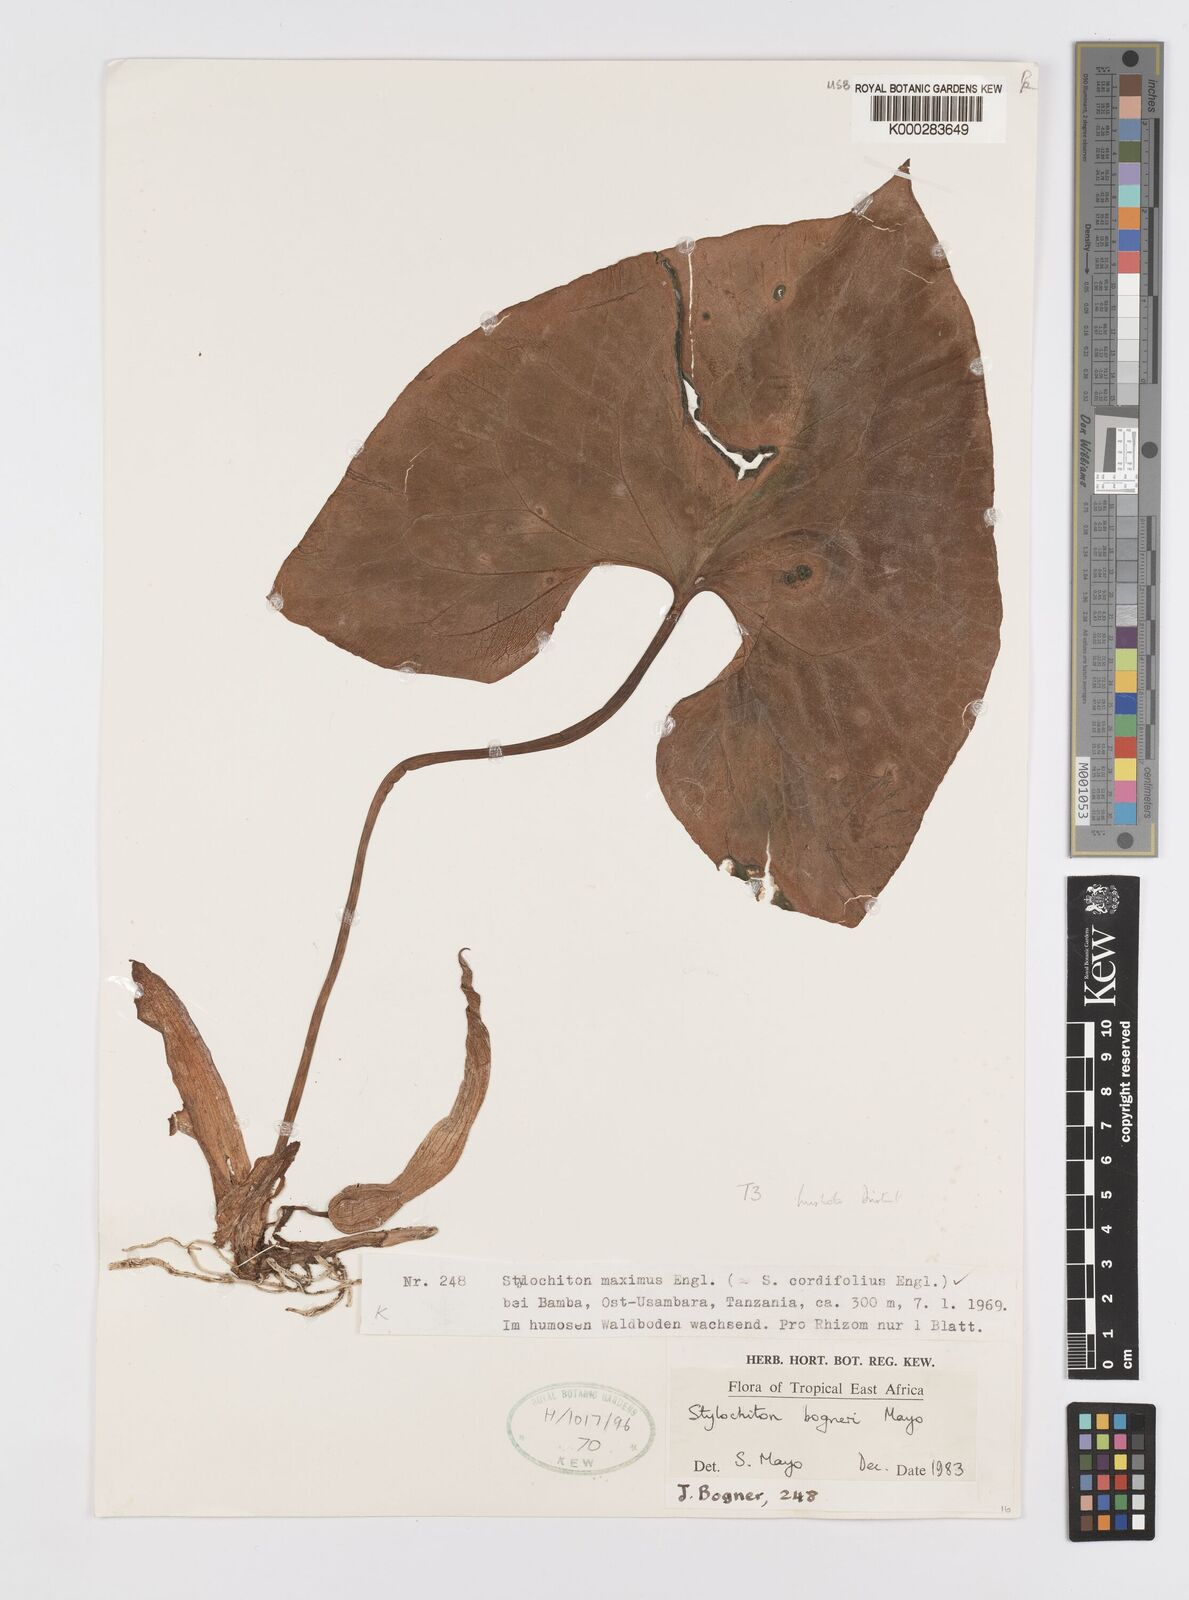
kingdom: Plantae
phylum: Tracheophyta
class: Liliopsida
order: Alismatales
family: Araceae
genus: Stylochaeton
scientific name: Stylochaeton bogneri
